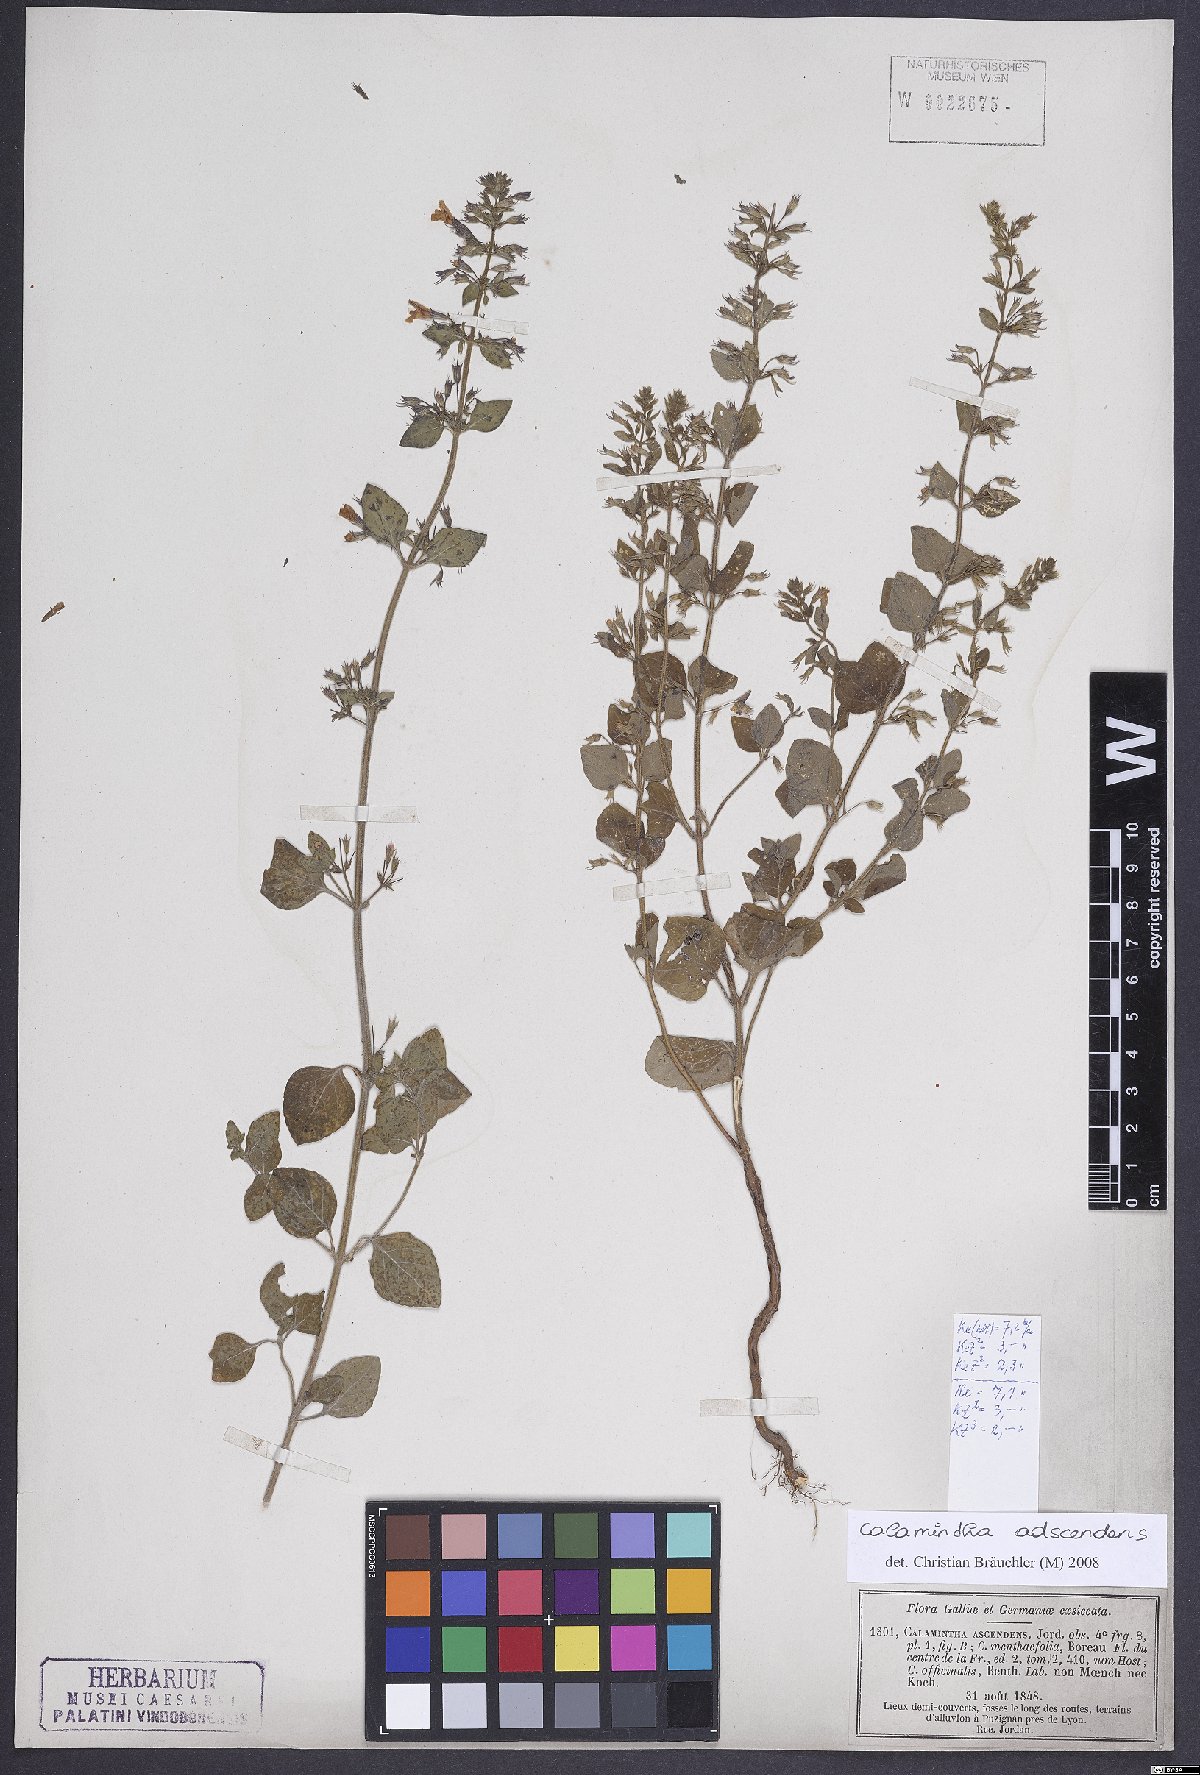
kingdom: Plantae
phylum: Tracheophyta
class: Magnoliopsida
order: Lamiales
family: Lamiaceae
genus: Clinopodium
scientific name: Clinopodium menthifolium
